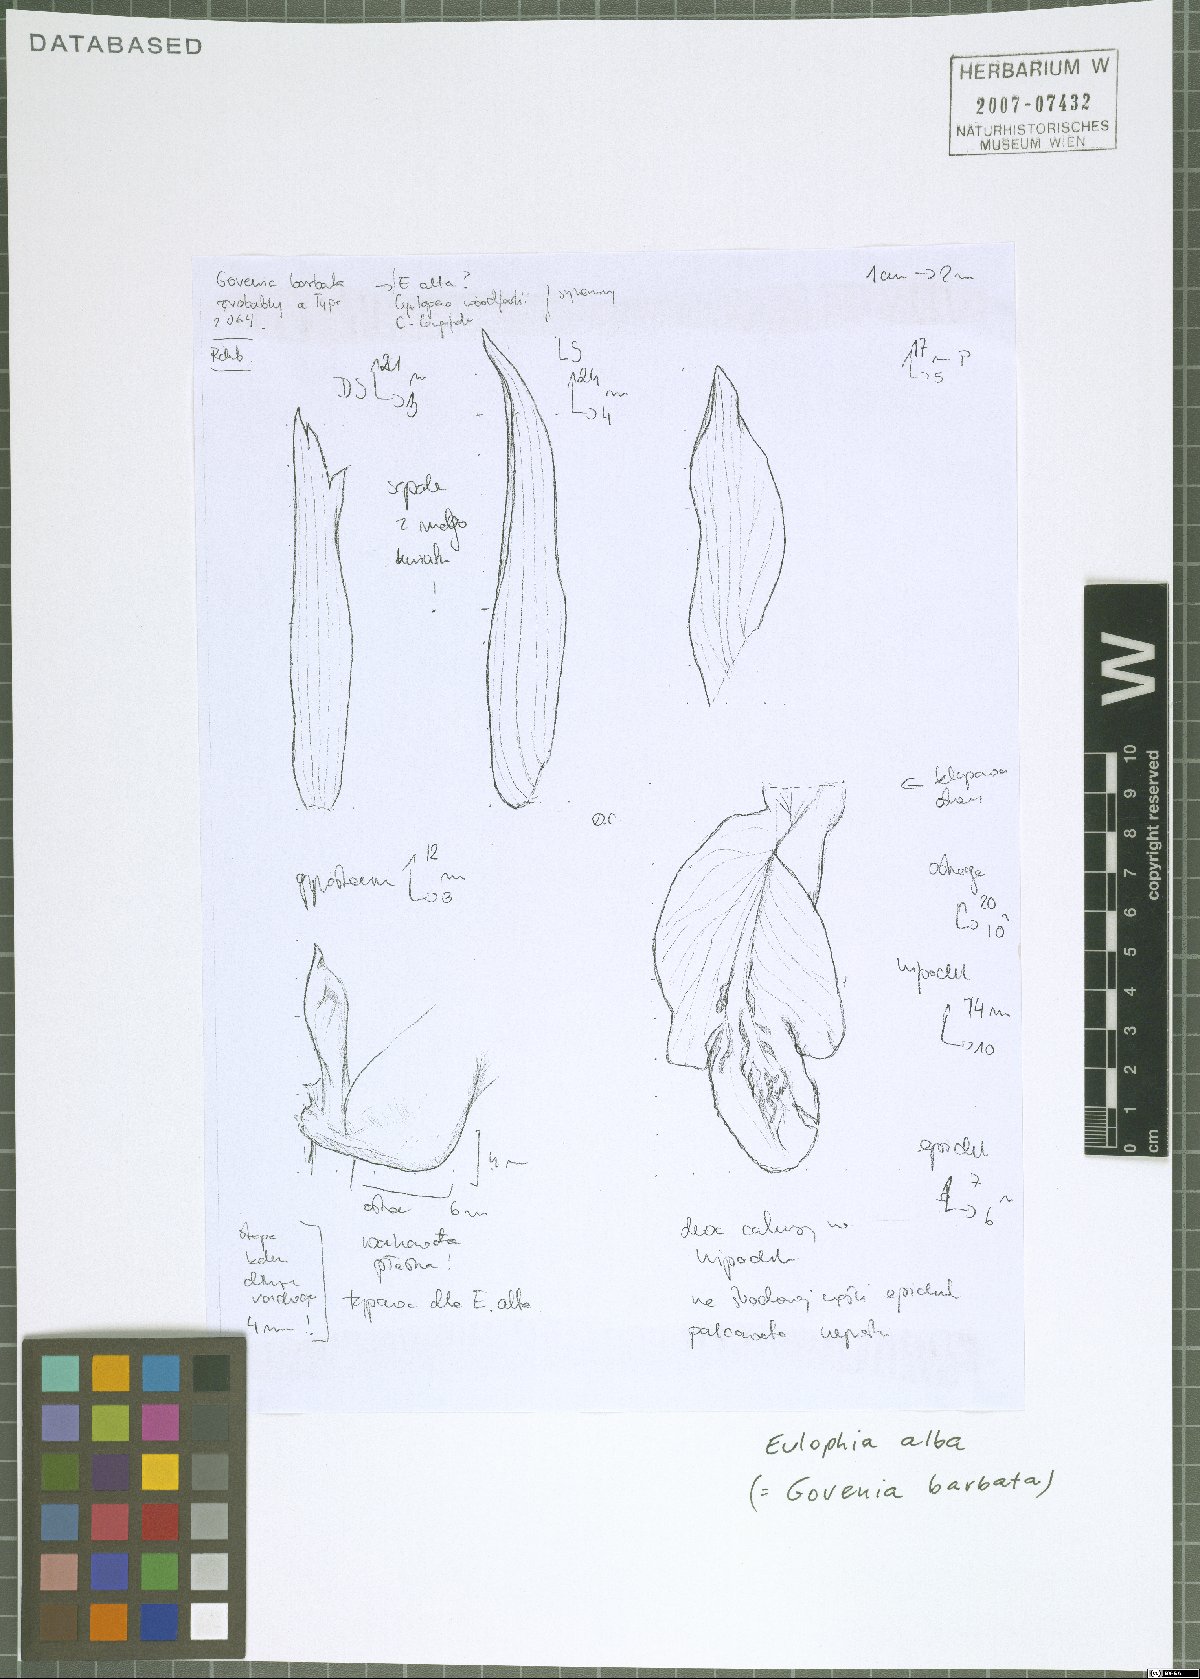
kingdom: Plantae
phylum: Tracheophyta
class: Liliopsida
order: Asparagales
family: Orchidaceae
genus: Eulophia
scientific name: Eulophia alta
